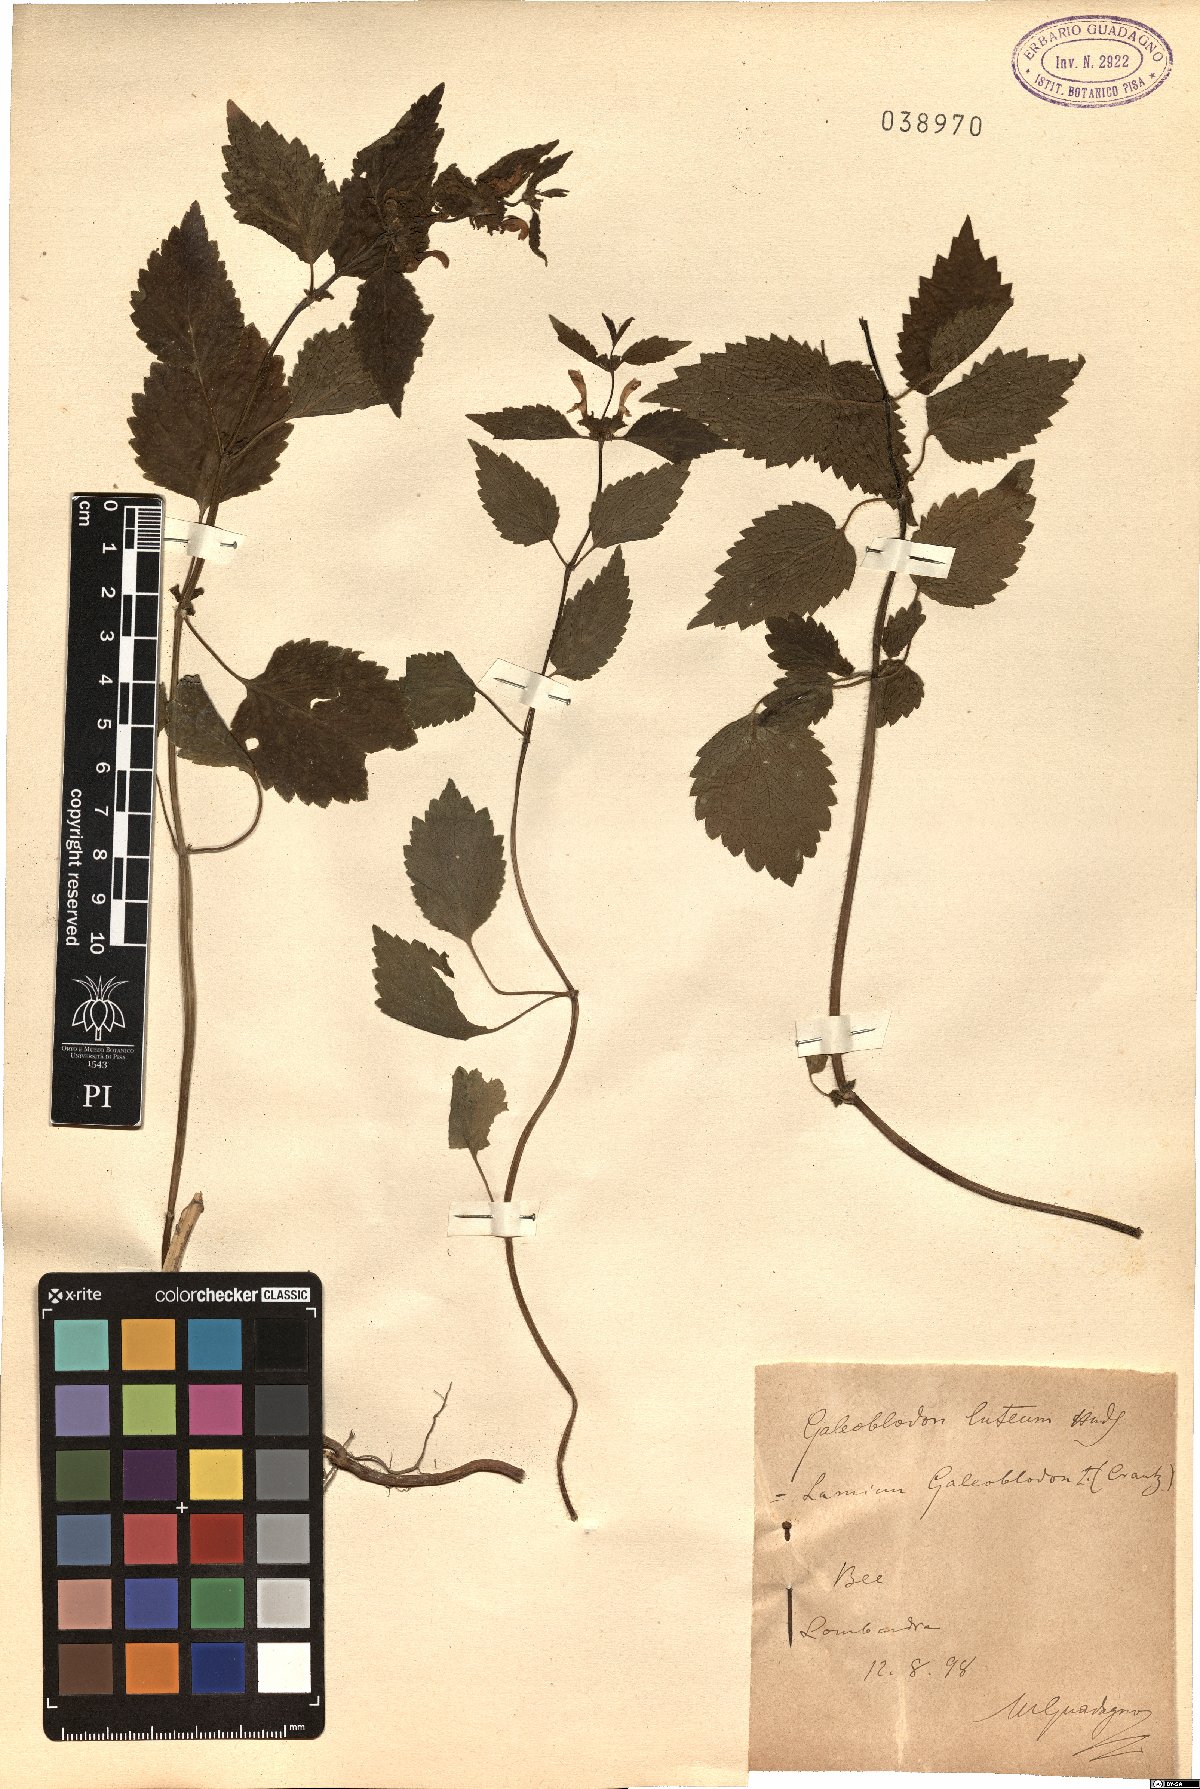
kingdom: Plantae
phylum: Tracheophyta
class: Magnoliopsida
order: Lamiales
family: Lamiaceae
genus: Lamium
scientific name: Lamium galeobdolon
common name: Yellow archangel
